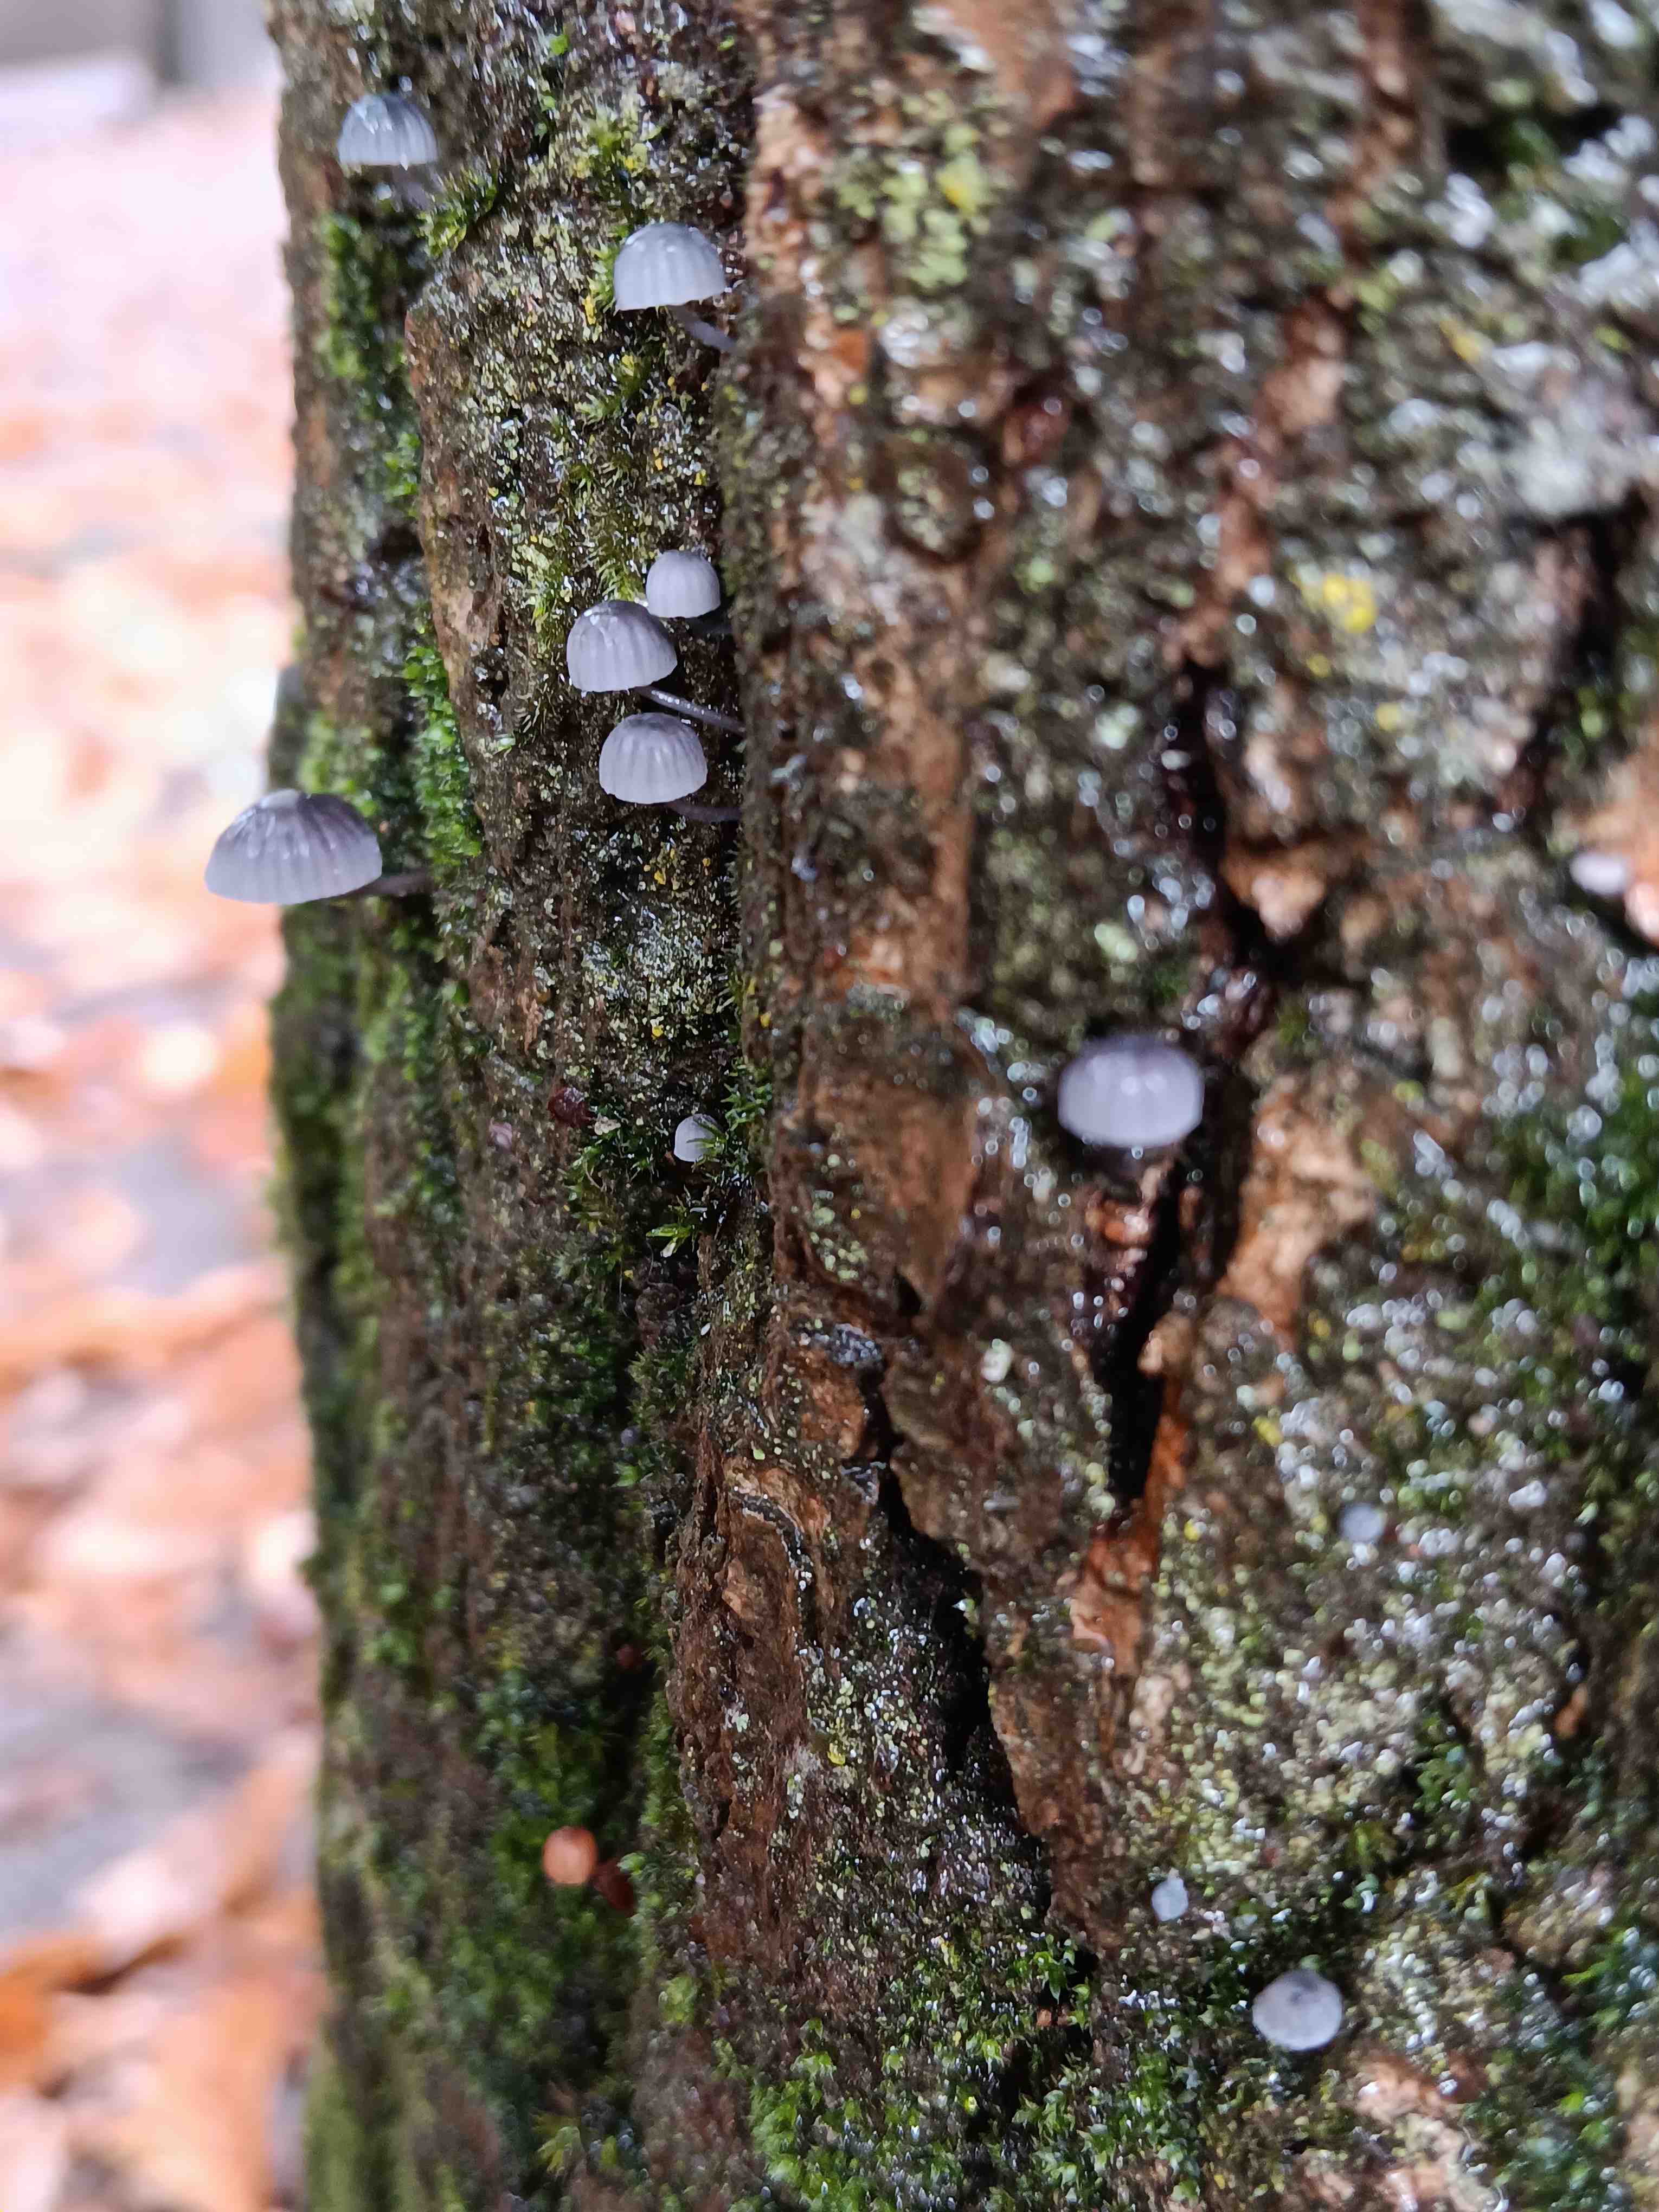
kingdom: Fungi
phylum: Basidiomycota
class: Agaricomycetes
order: Agaricales
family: Mycenaceae
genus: Mycena
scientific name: Mycena pseudocorticola
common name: gråblå bark-huesvamp
